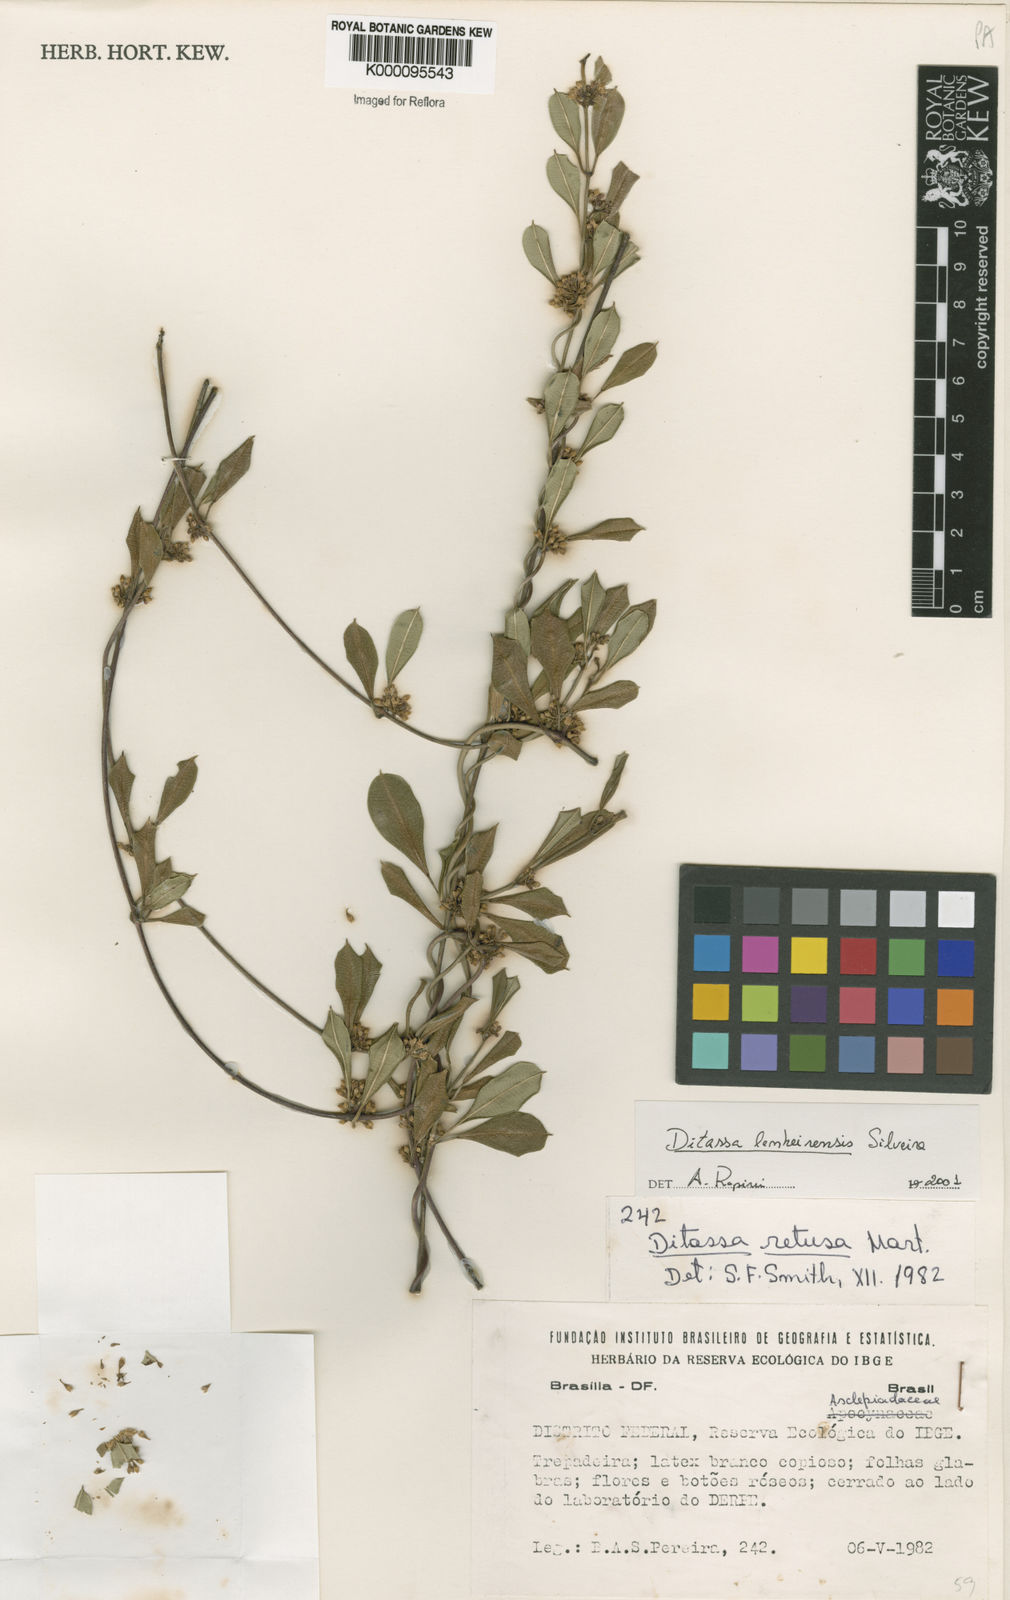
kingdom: Plantae
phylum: Tracheophyta
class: Magnoliopsida
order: Gentianales
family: Apocynaceae
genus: Ditassa
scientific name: Ditassa lenheirensis
